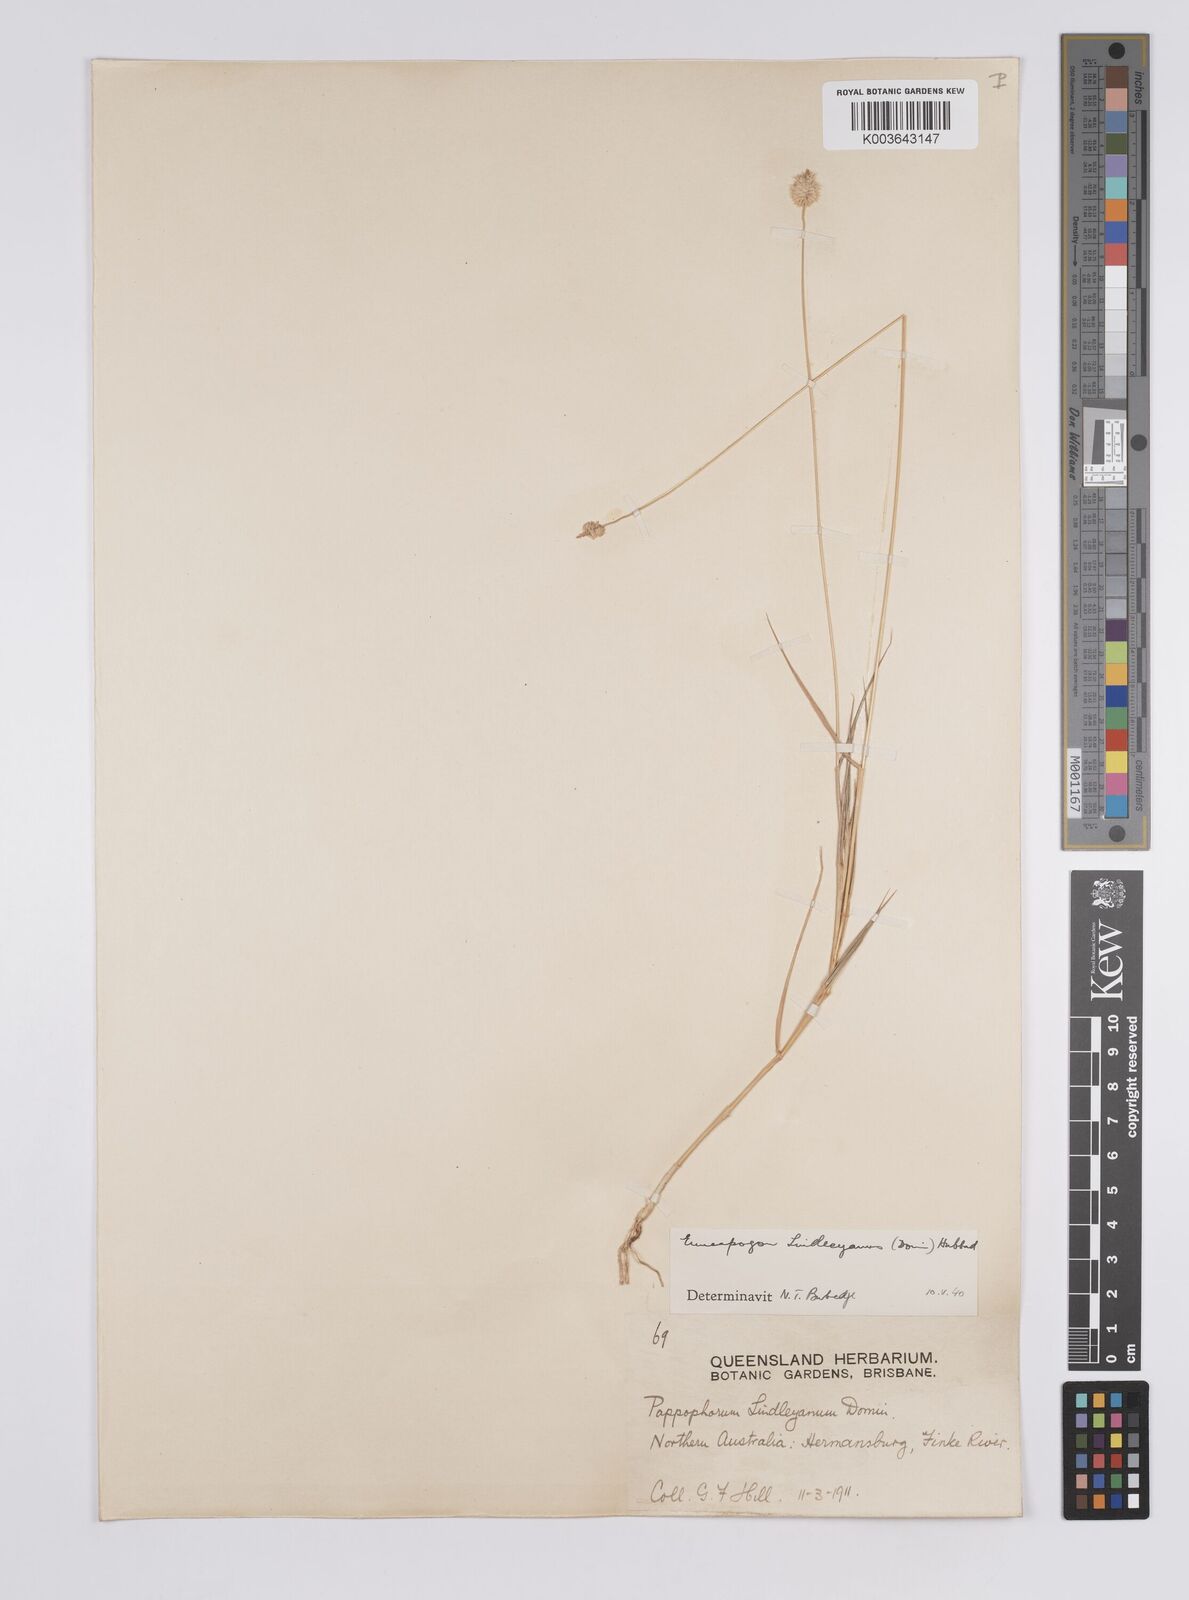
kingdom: Plantae
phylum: Tracheophyta
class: Liliopsida
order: Poales
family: Poaceae
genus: Enneapogon
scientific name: Enneapogon lindleyanus
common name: Conetop nineawn
